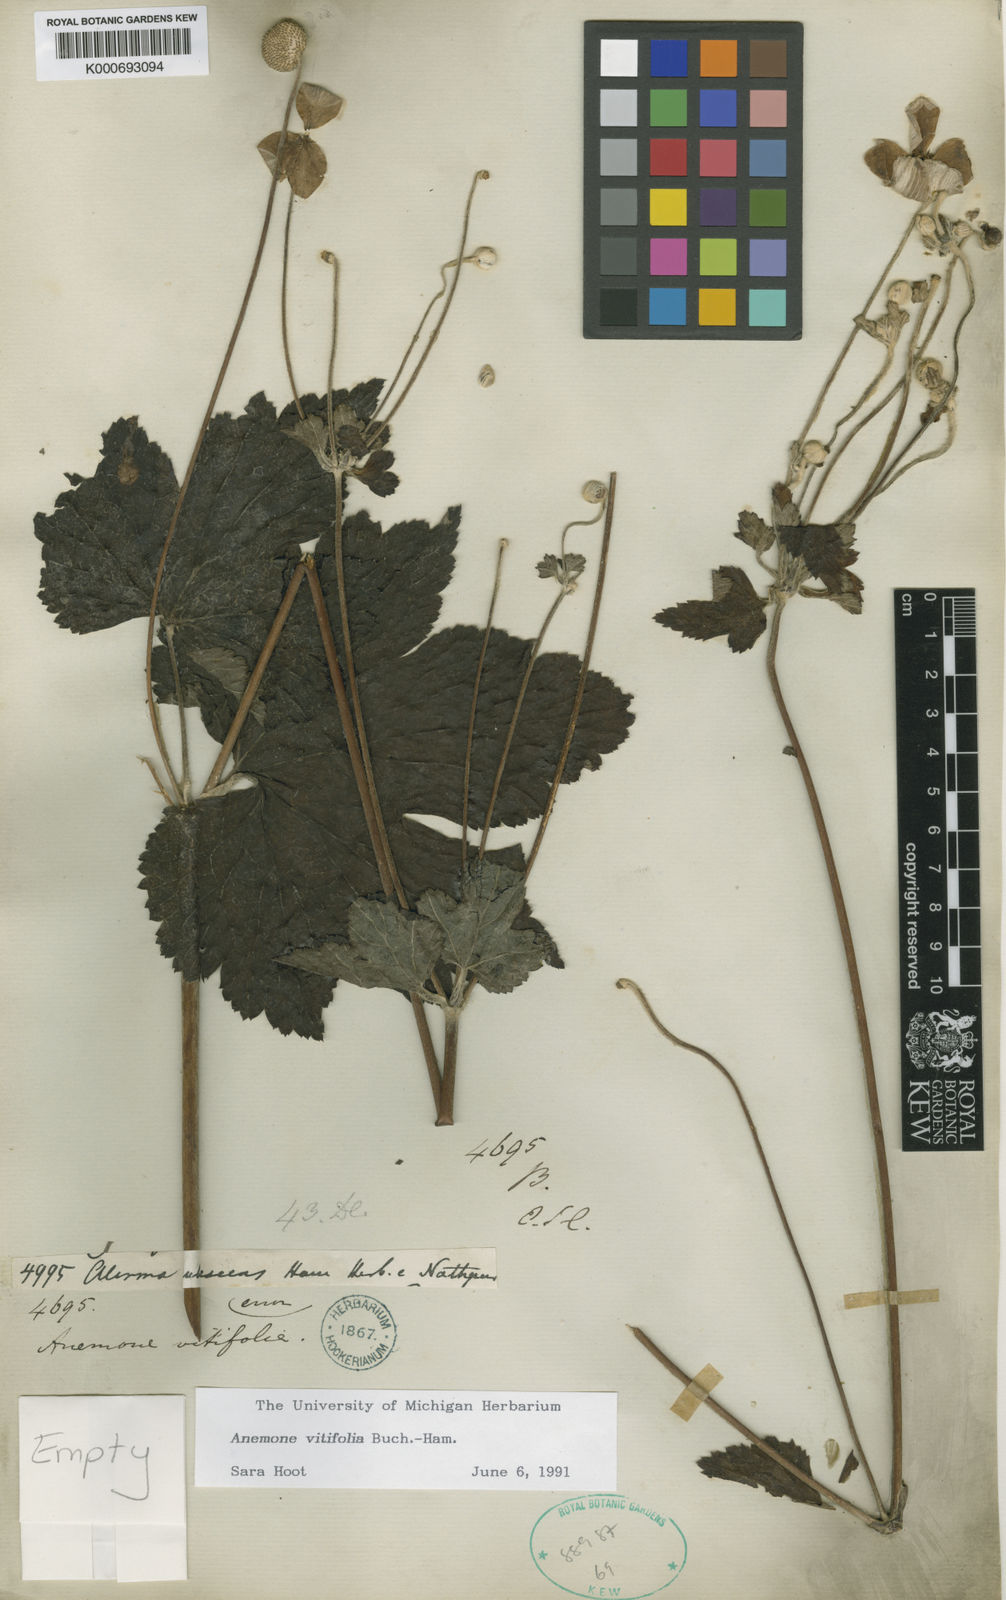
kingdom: Plantae
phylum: Tracheophyta
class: Magnoliopsida
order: Ranunculales
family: Ranunculaceae
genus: Eriocapitella
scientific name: Eriocapitella vitifolia
